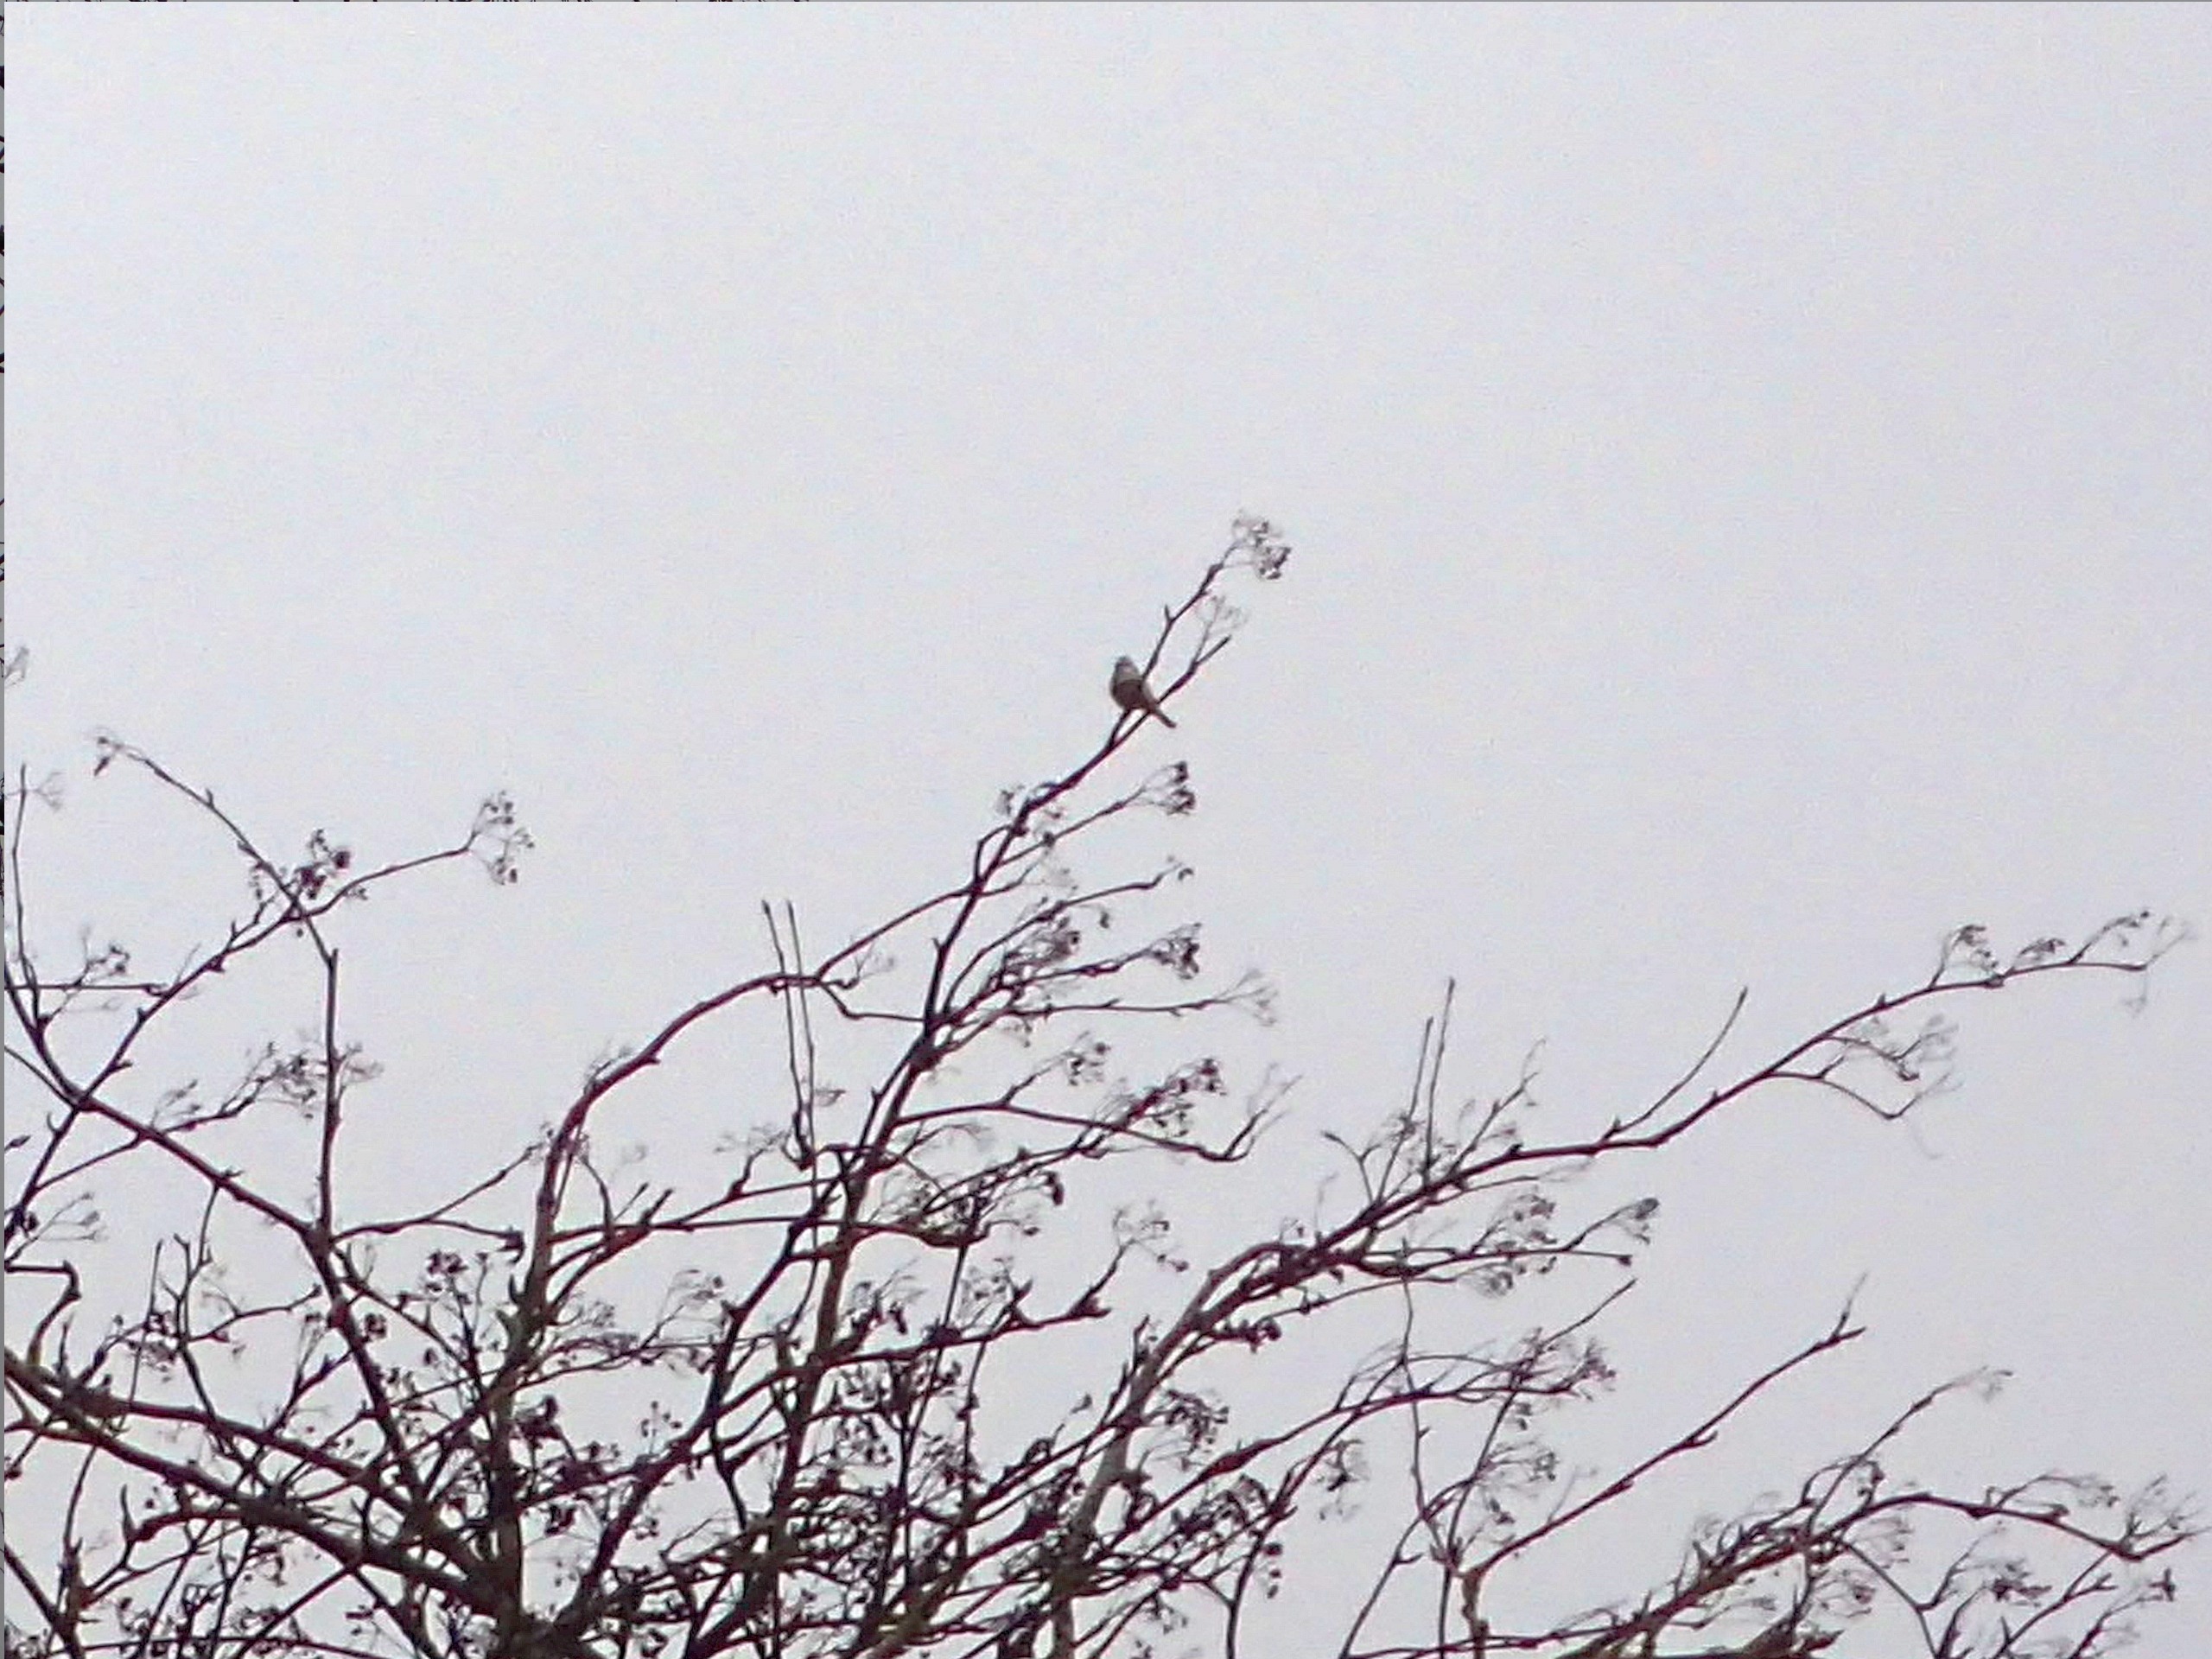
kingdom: Animalia
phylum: Chordata
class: Aves
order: Passeriformes
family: Paridae
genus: Cyanistes
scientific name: Cyanistes caeruleus
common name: Blåmejse
